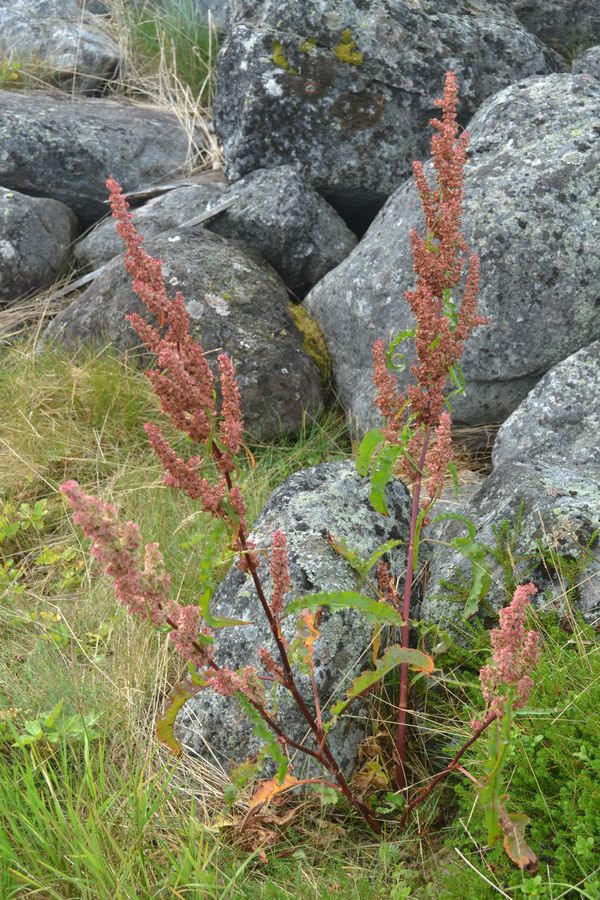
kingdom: Plantae
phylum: Tracheophyta
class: Magnoliopsida
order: Caryophyllales
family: Polygonaceae
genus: Rumex
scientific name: Rumex pseudonatronatus
